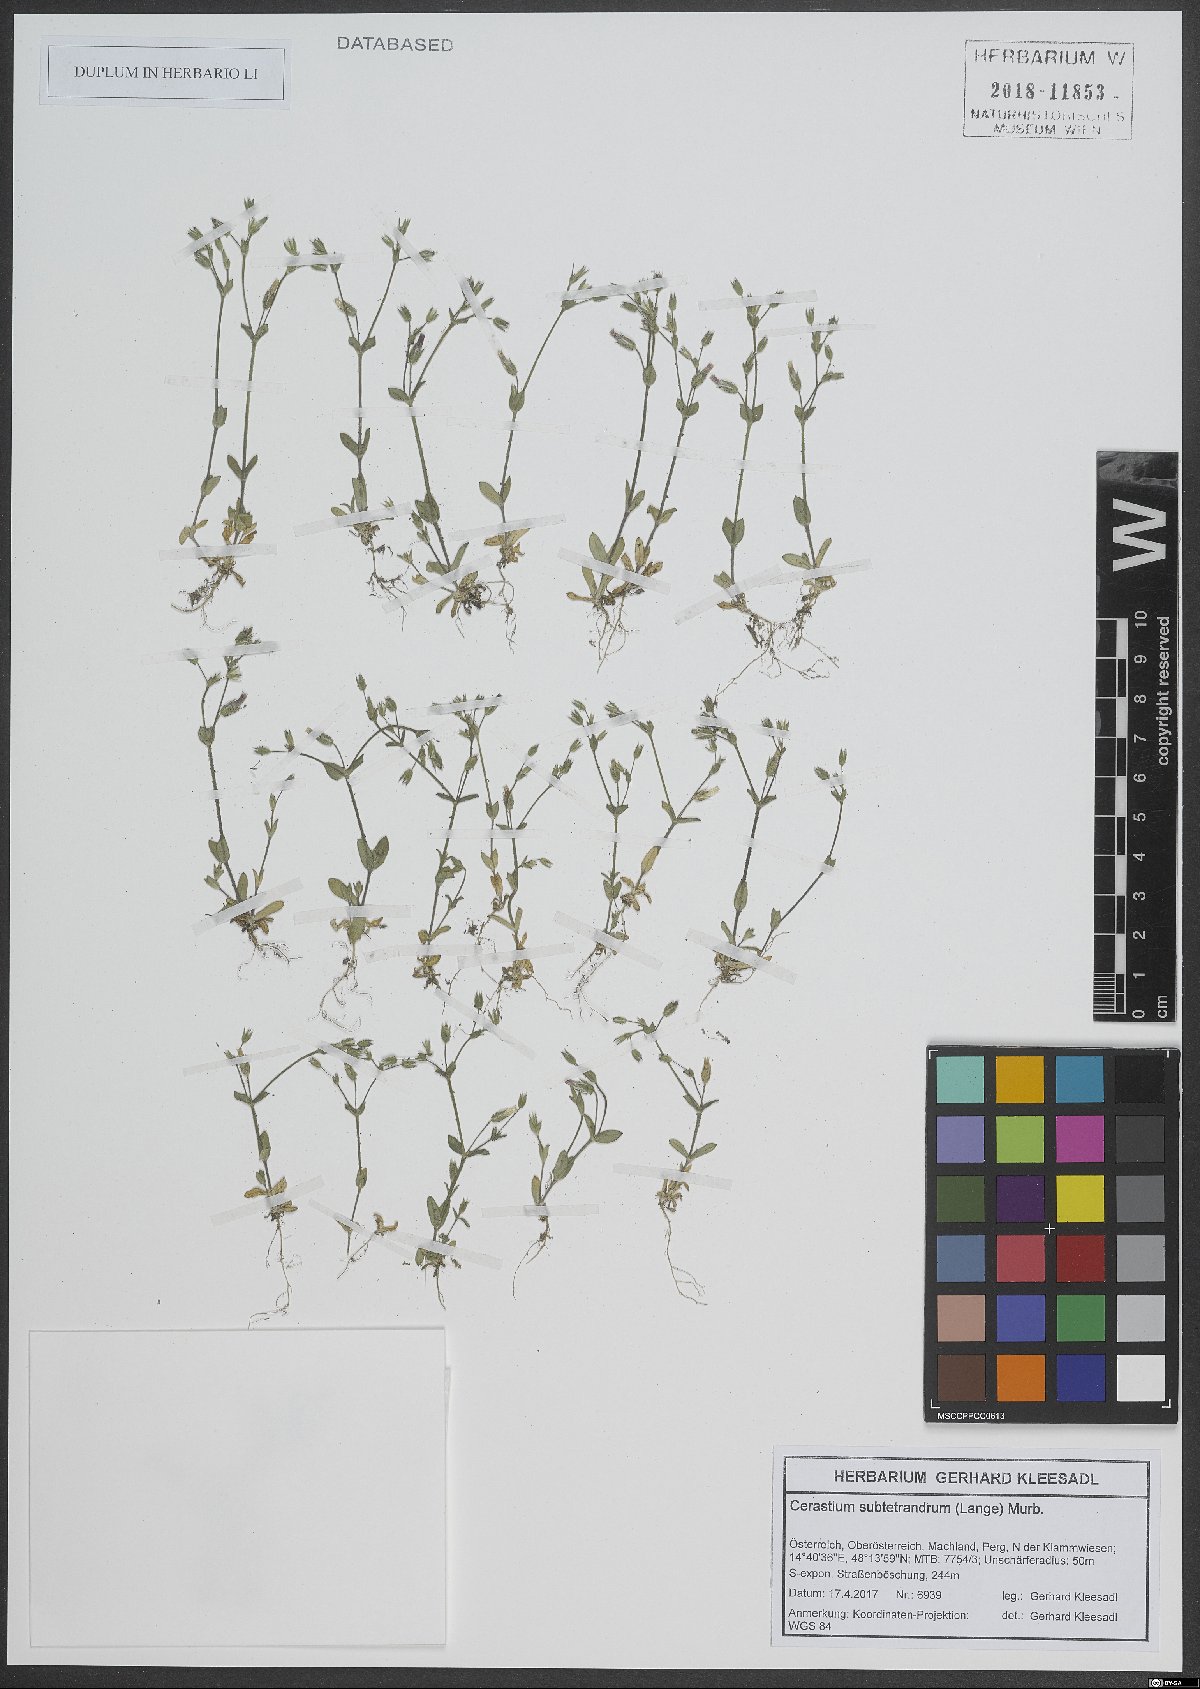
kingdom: Plantae
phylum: Tracheophyta
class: Magnoliopsida
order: Caryophyllales
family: Caryophyllaceae
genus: Cerastium
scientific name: Cerastium pumilum
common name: Dwarf mouse-ear
